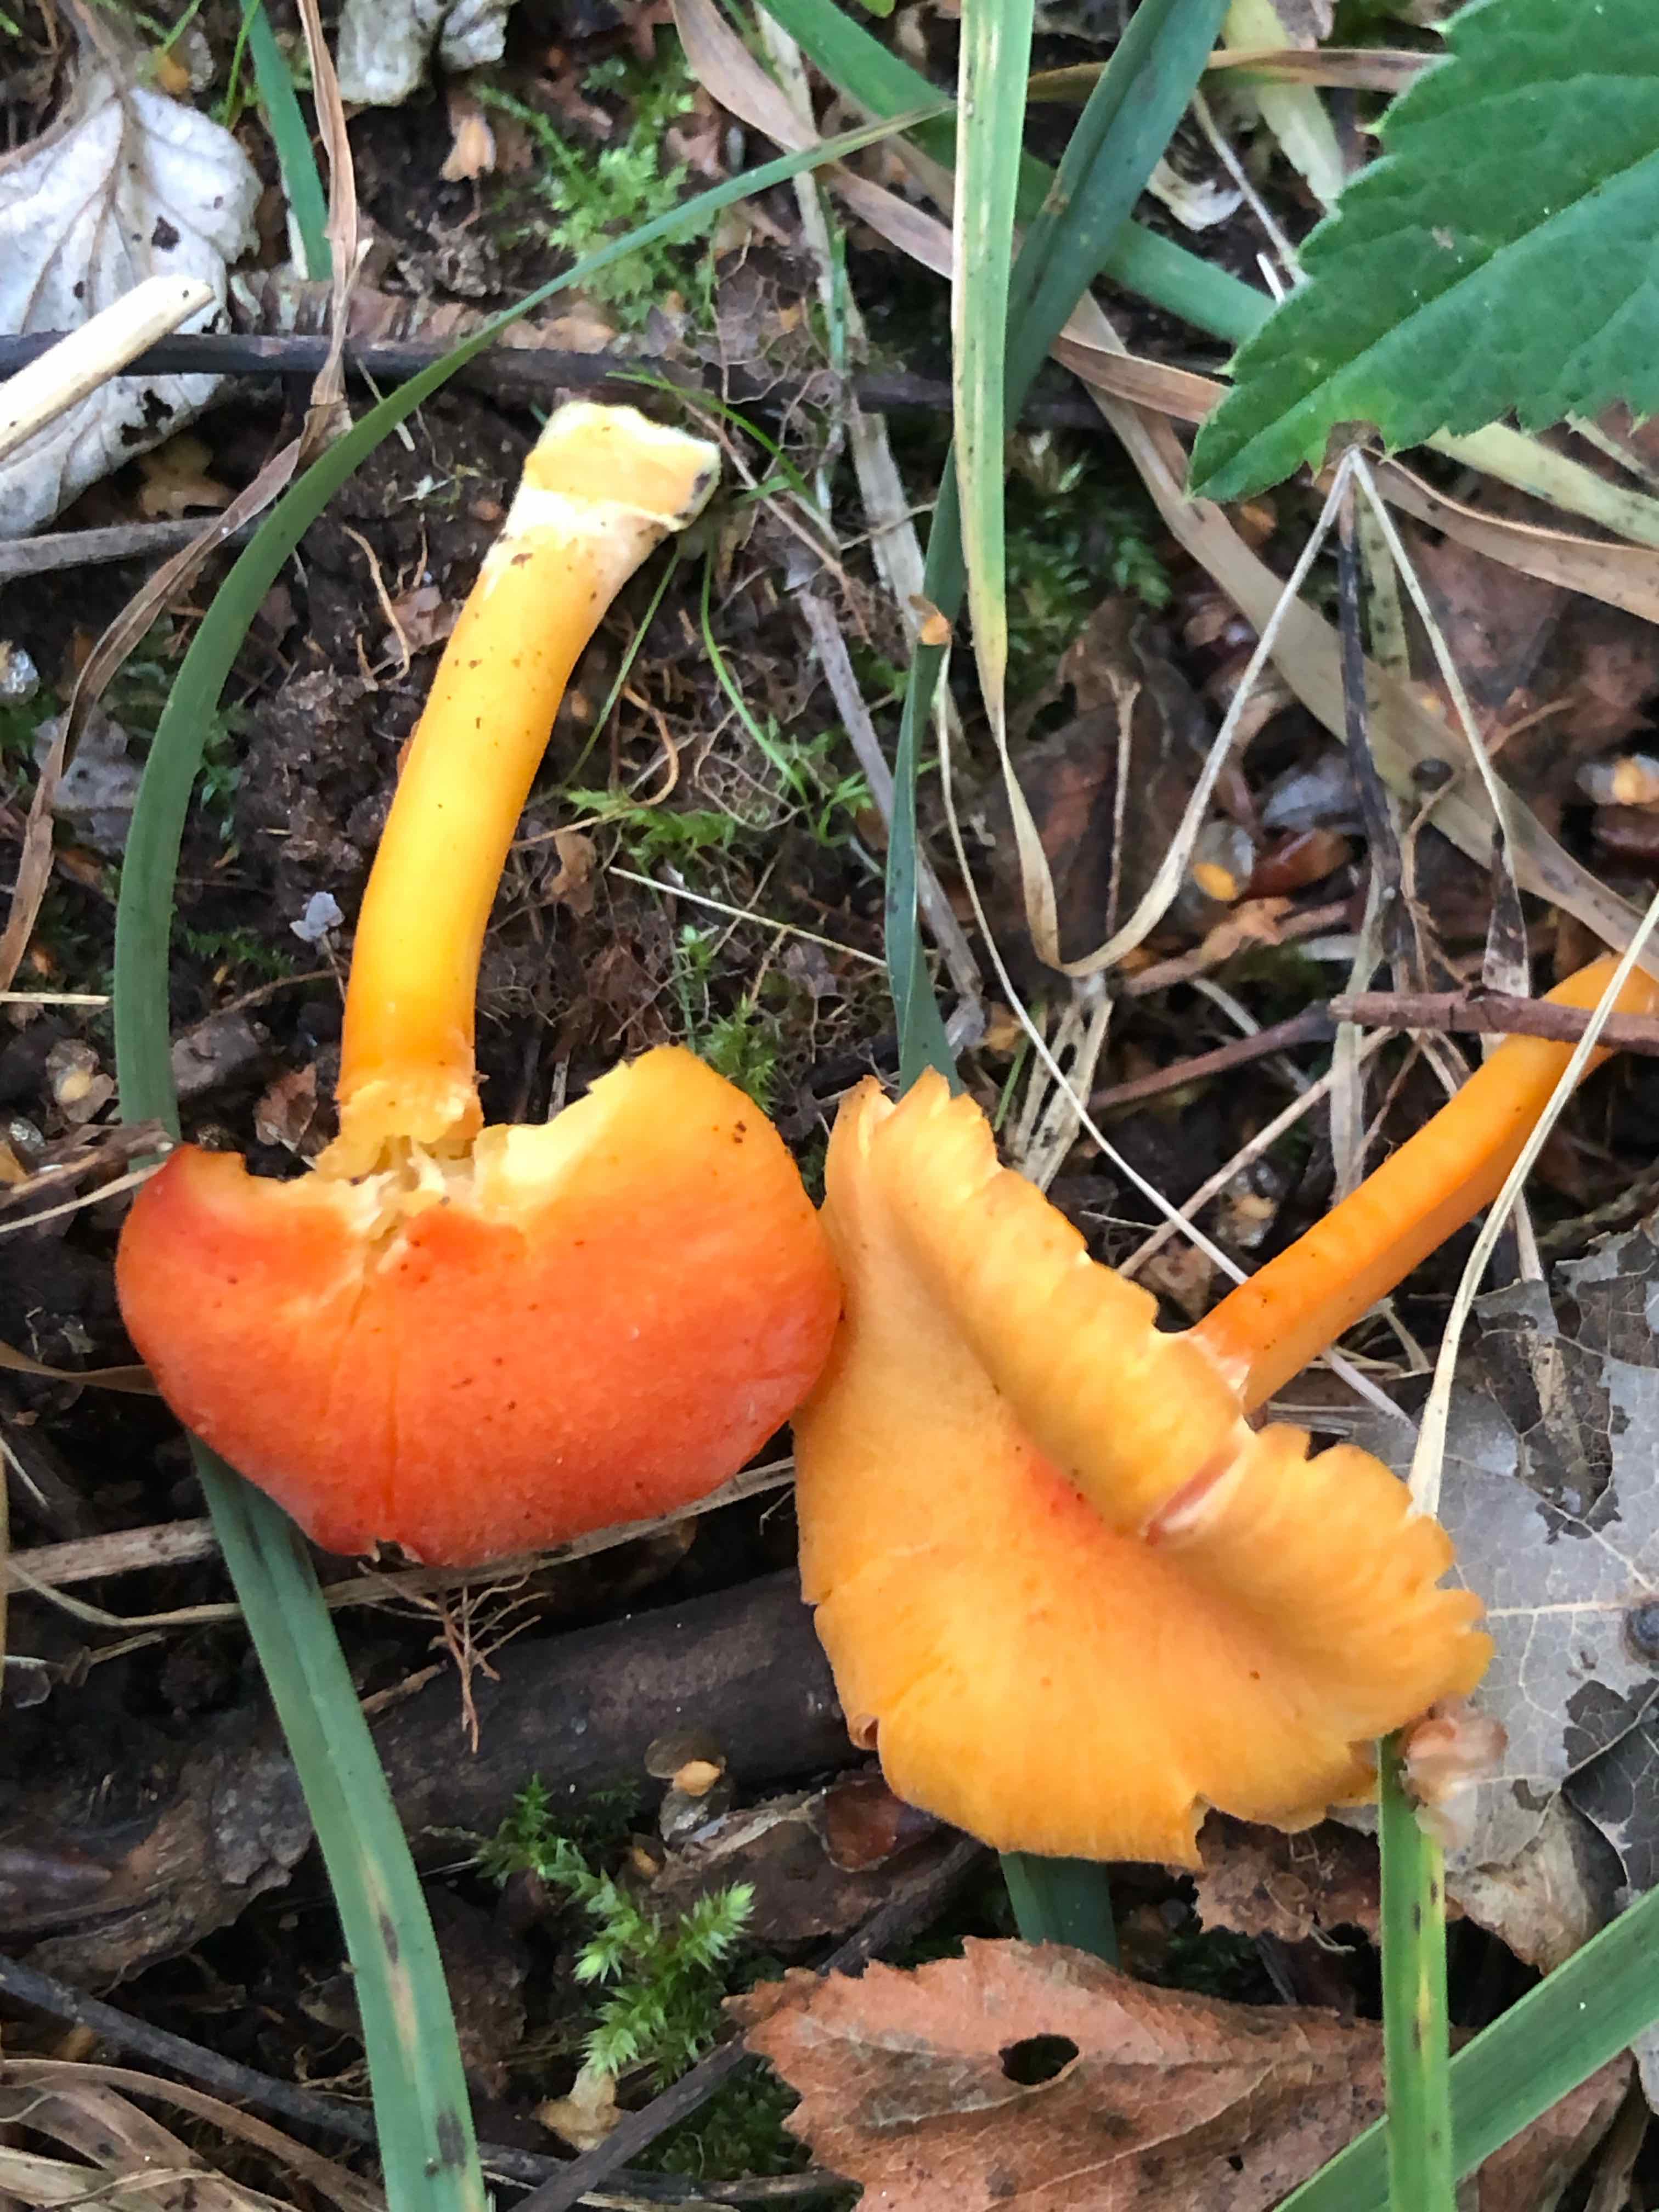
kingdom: Fungi
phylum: Basidiomycota
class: Agaricomycetes
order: Agaricales
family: Hygrophoraceae
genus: Hygrocybe
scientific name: Hygrocybe miniata
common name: mønje-vokshat
